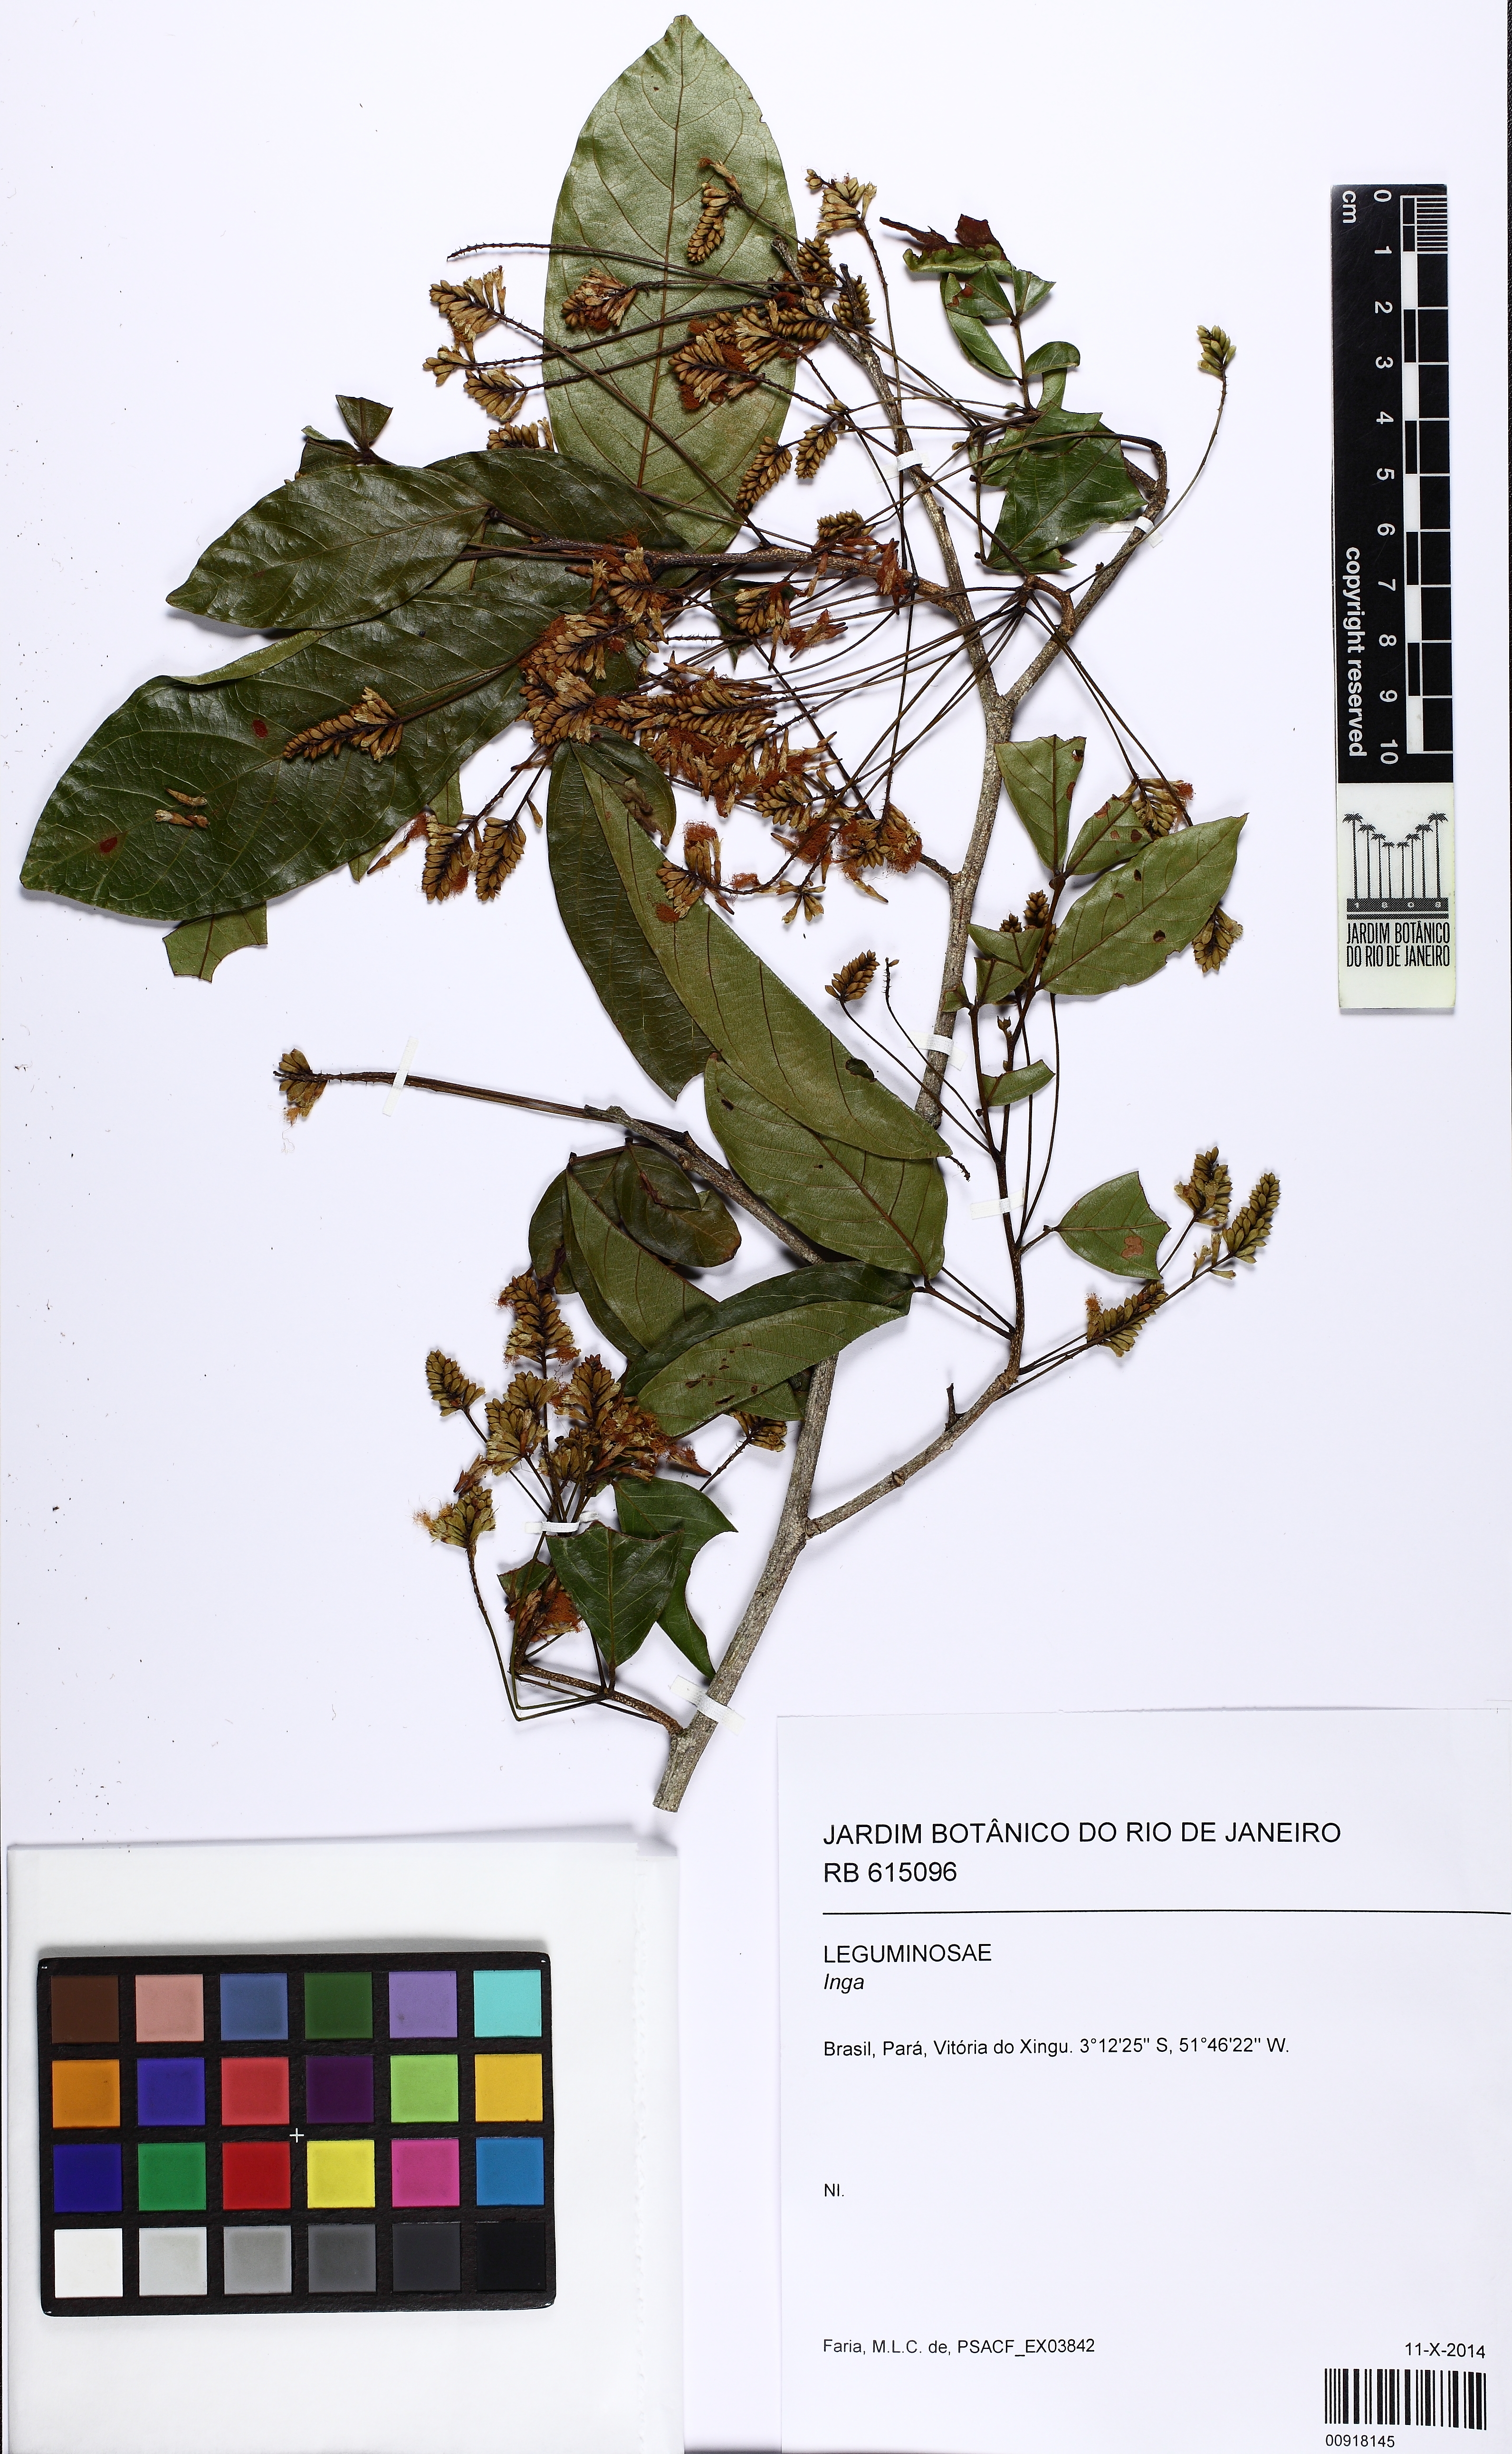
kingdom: Plantae
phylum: Tracheophyta
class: Magnoliopsida
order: Fabales
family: Fabaceae
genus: Inga
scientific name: Inga
